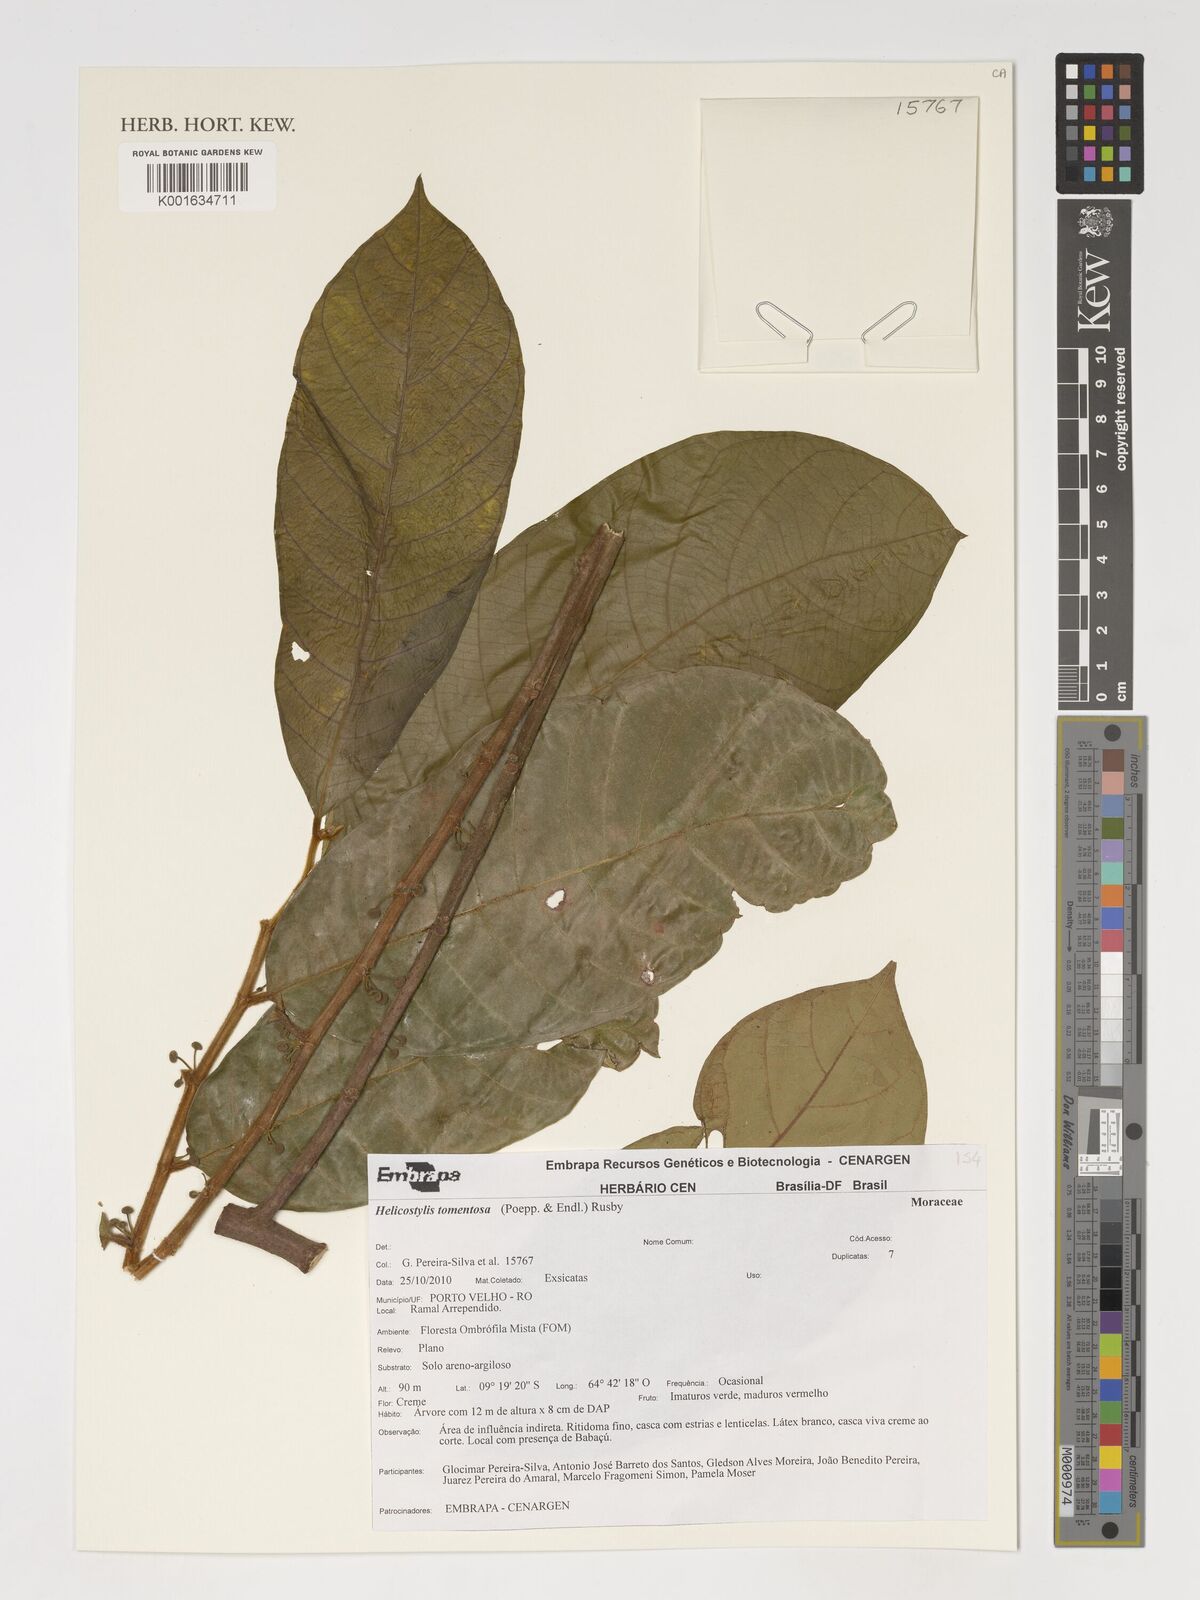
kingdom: Plantae
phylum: Tracheophyta
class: Magnoliopsida
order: Rosales
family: Moraceae
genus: Helicostylis
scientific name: Helicostylis tomentosa
